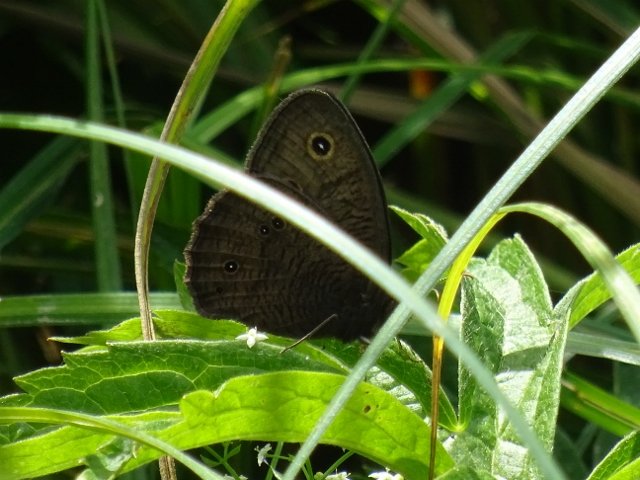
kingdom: Animalia
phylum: Arthropoda
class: Insecta
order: Lepidoptera
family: Nymphalidae
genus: Cercyonis
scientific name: Cercyonis pegala
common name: Common Wood-Nymph
